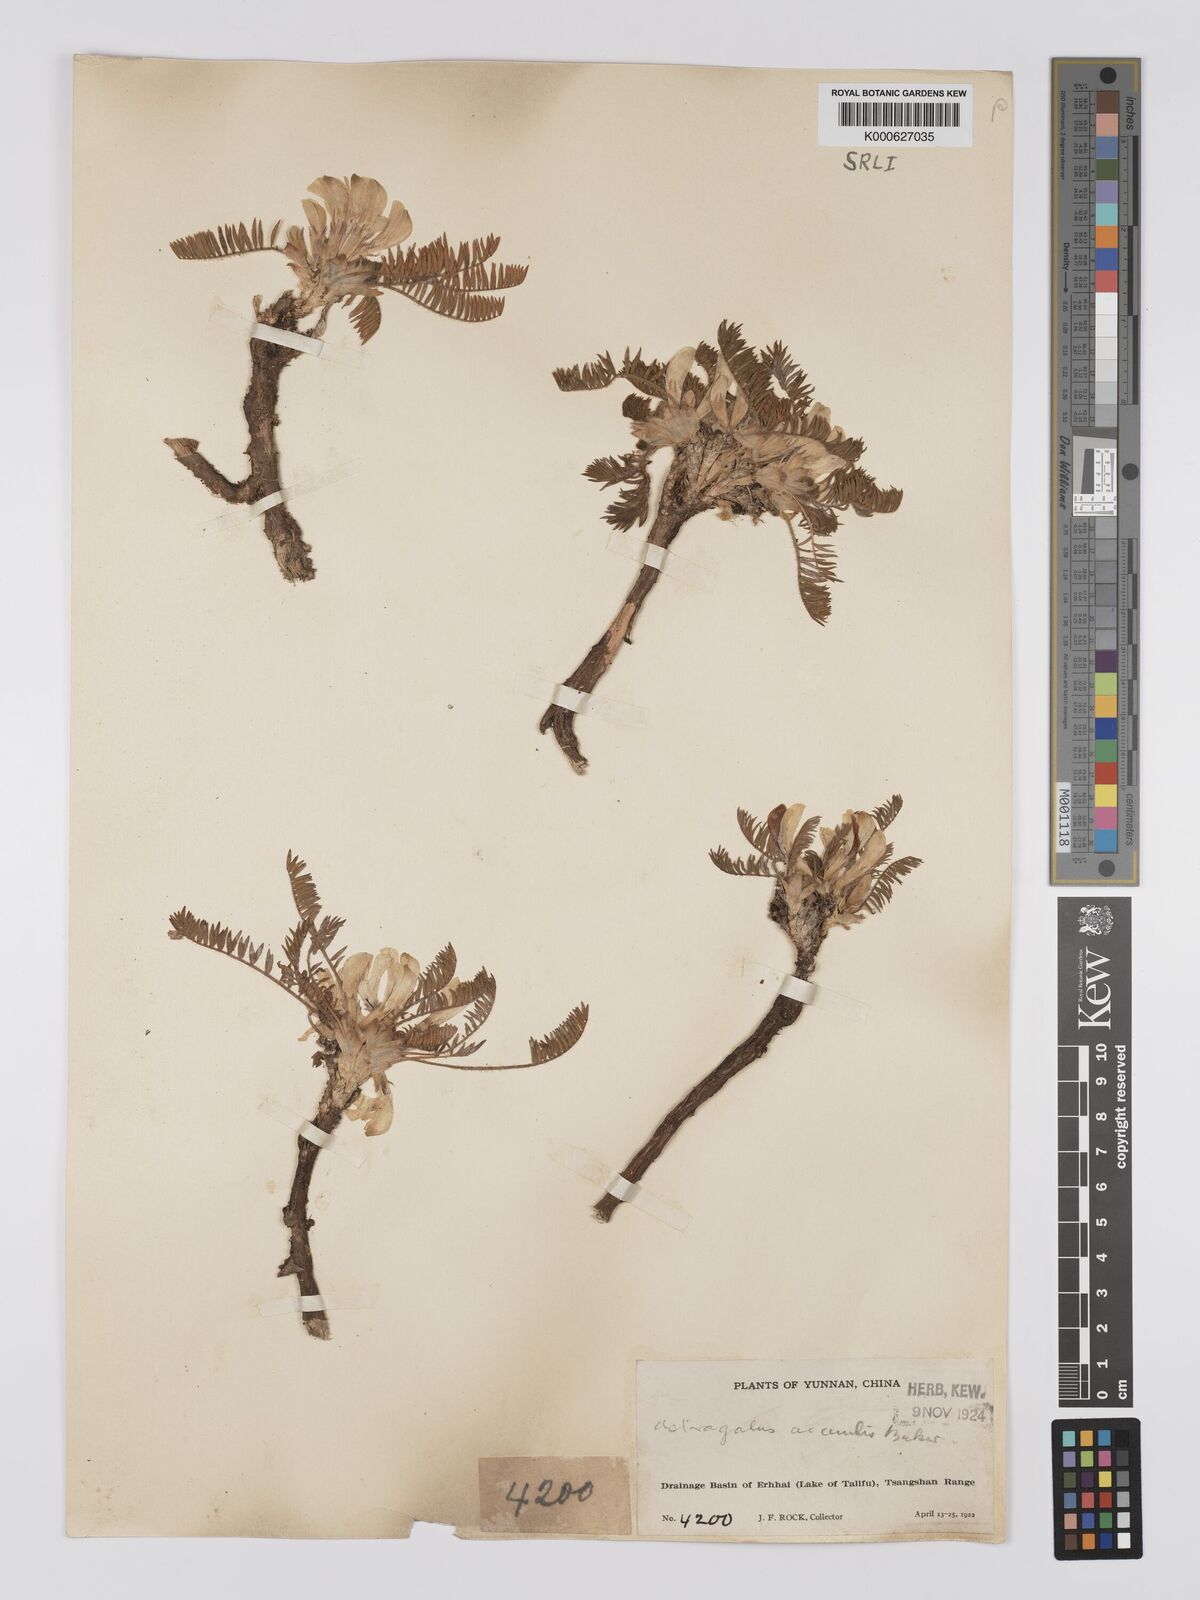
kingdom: Plantae
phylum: Tracheophyta
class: Magnoliopsida
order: Fabales
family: Fabaceae
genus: Astragalus
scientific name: Astragalus acaulis
